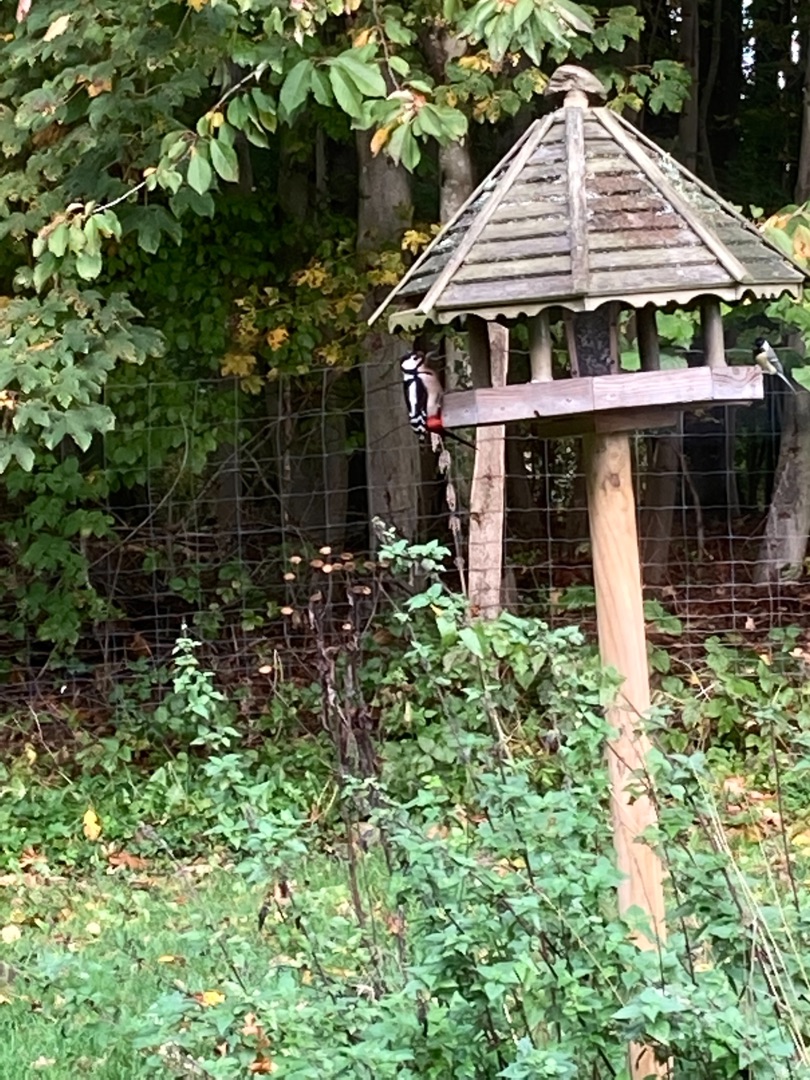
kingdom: Animalia
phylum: Chordata
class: Aves
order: Piciformes
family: Picidae
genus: Dendrocopos
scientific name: Dendrocopos major
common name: Stor flagspætte
